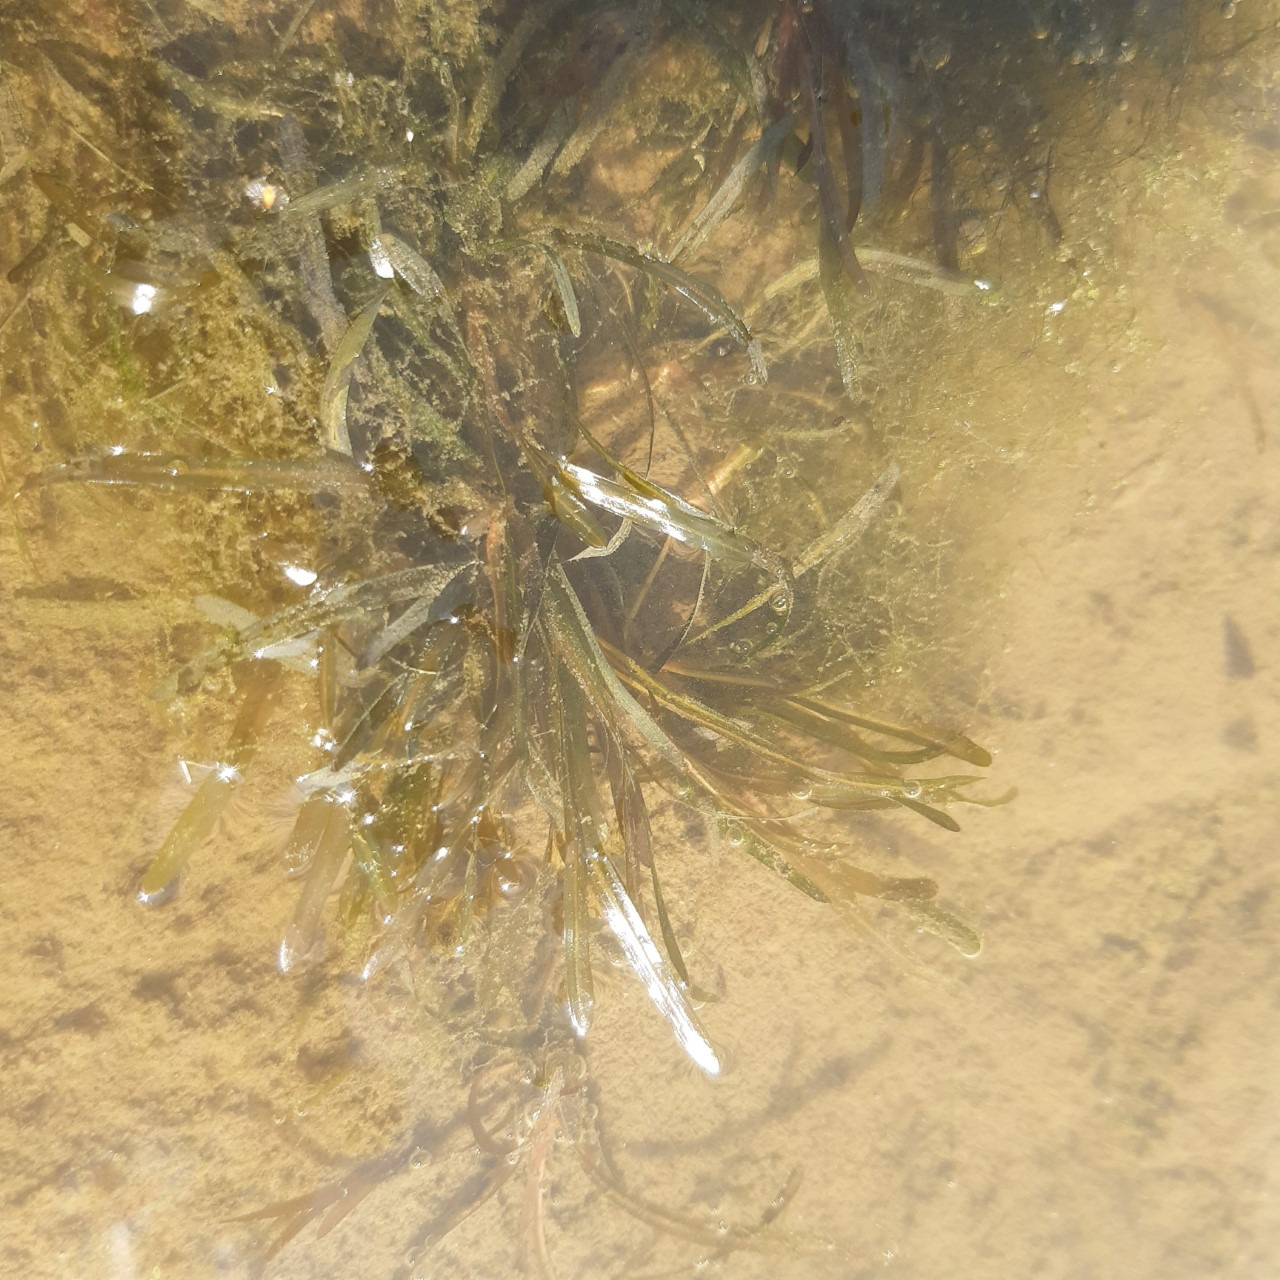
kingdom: Plantae
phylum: Tracheophyta
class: Liliopsida
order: Alismatales
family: Potamogetonaceae
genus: Potamogeton
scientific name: Potamogeton obtusifolius
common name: Butbladet vandaks
